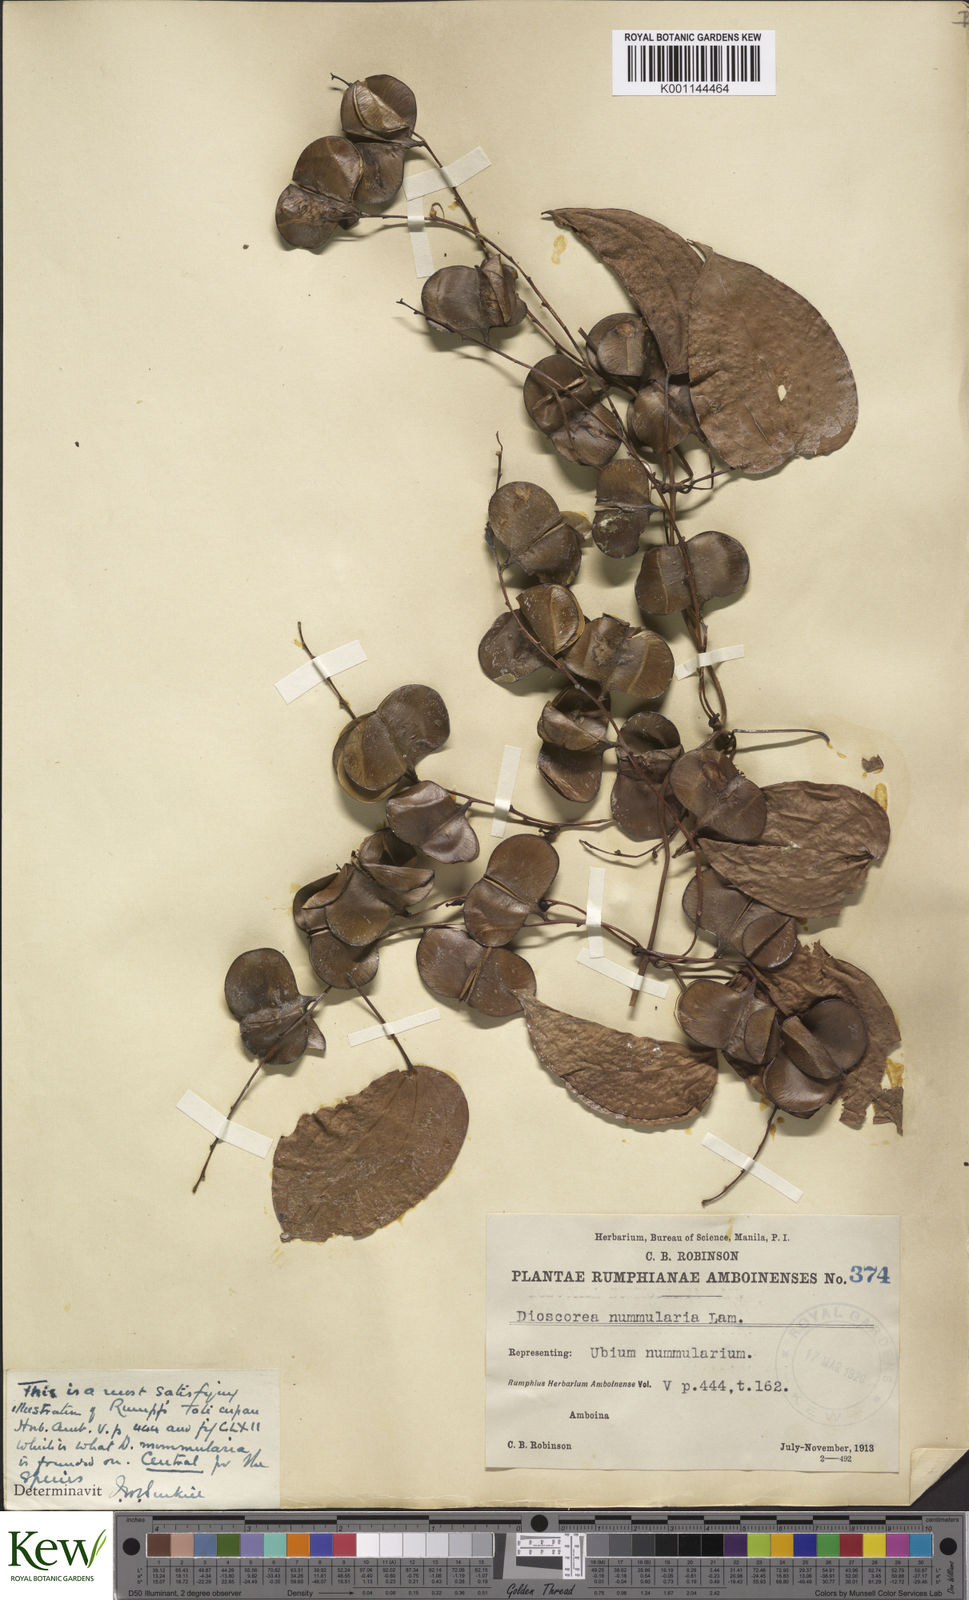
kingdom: Plantae
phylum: Tracheophyta
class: Liliopsida
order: Dioscoreales
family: Dioscoreaceae
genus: Dioscorea
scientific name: Dioscorea nummularia
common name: Pacific yam
